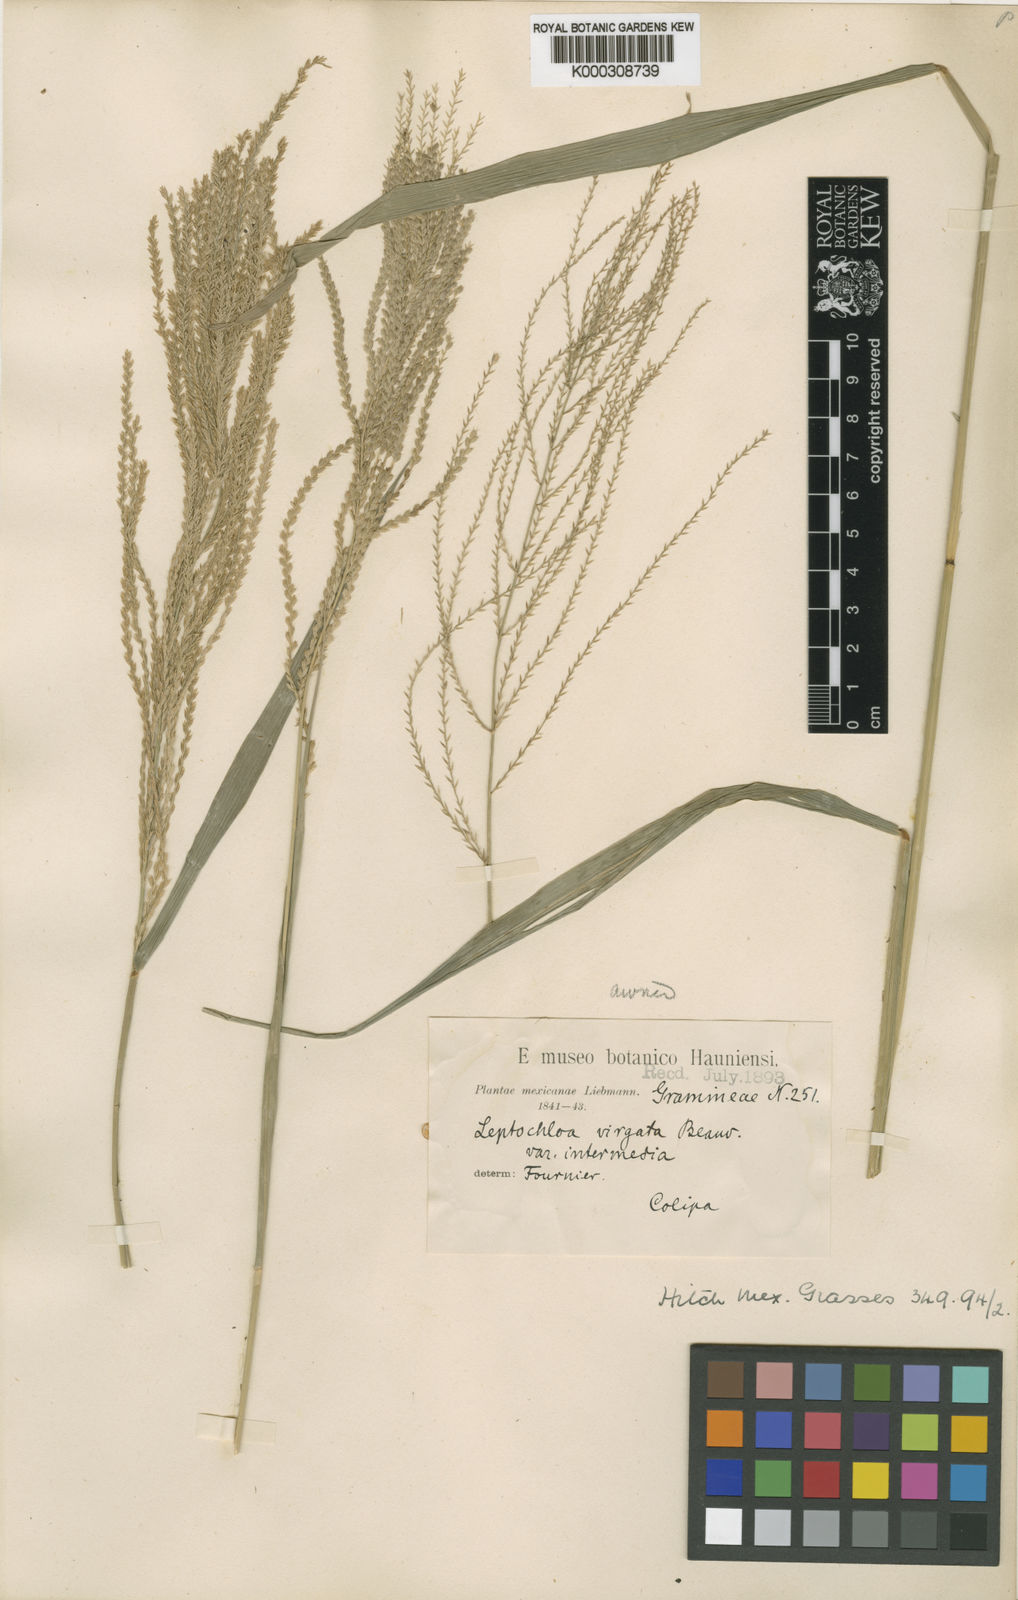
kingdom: Plantae
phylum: Tracheophyta
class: Liliopsida
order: Poales
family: Poaceae
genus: Leptochloa
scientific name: Leptochloa virgata
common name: Tropical sprangletop
